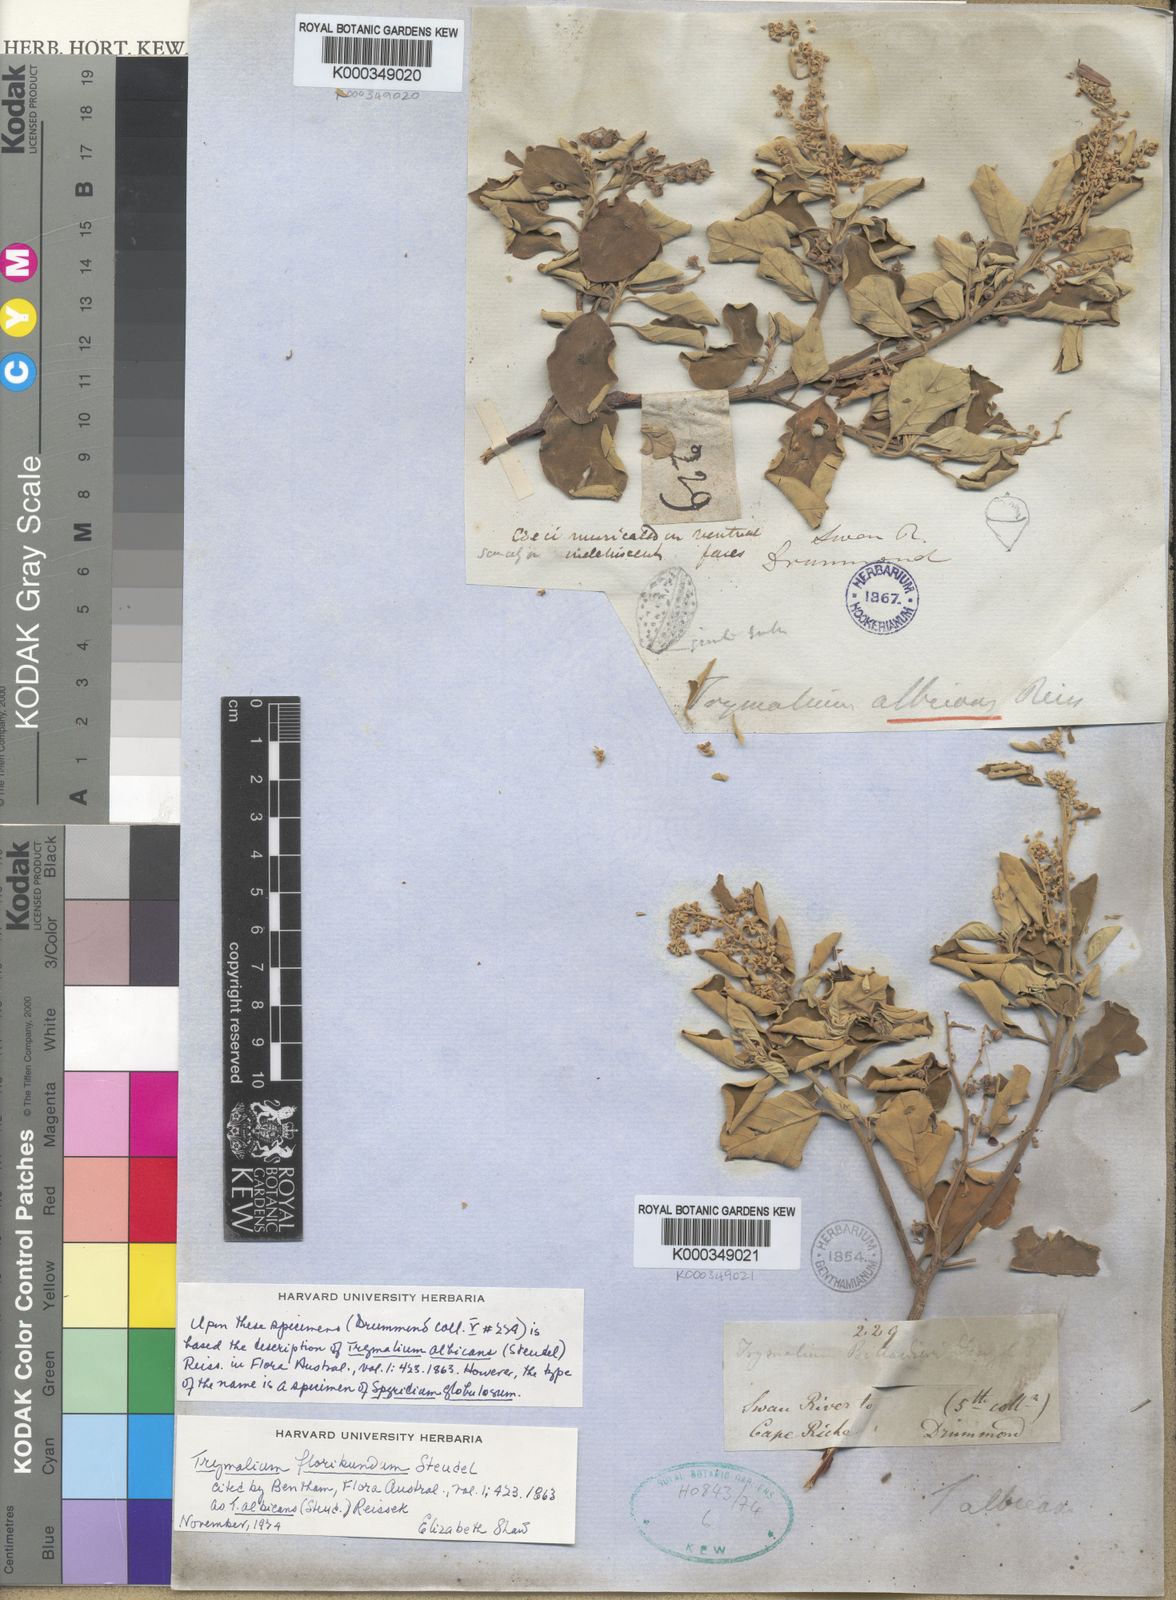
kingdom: Plantae
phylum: Tracheophyta
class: Magnoliopsida
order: Rosales
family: Rhamnaceae
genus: Trymalium
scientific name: Trymalium odoratissimum
